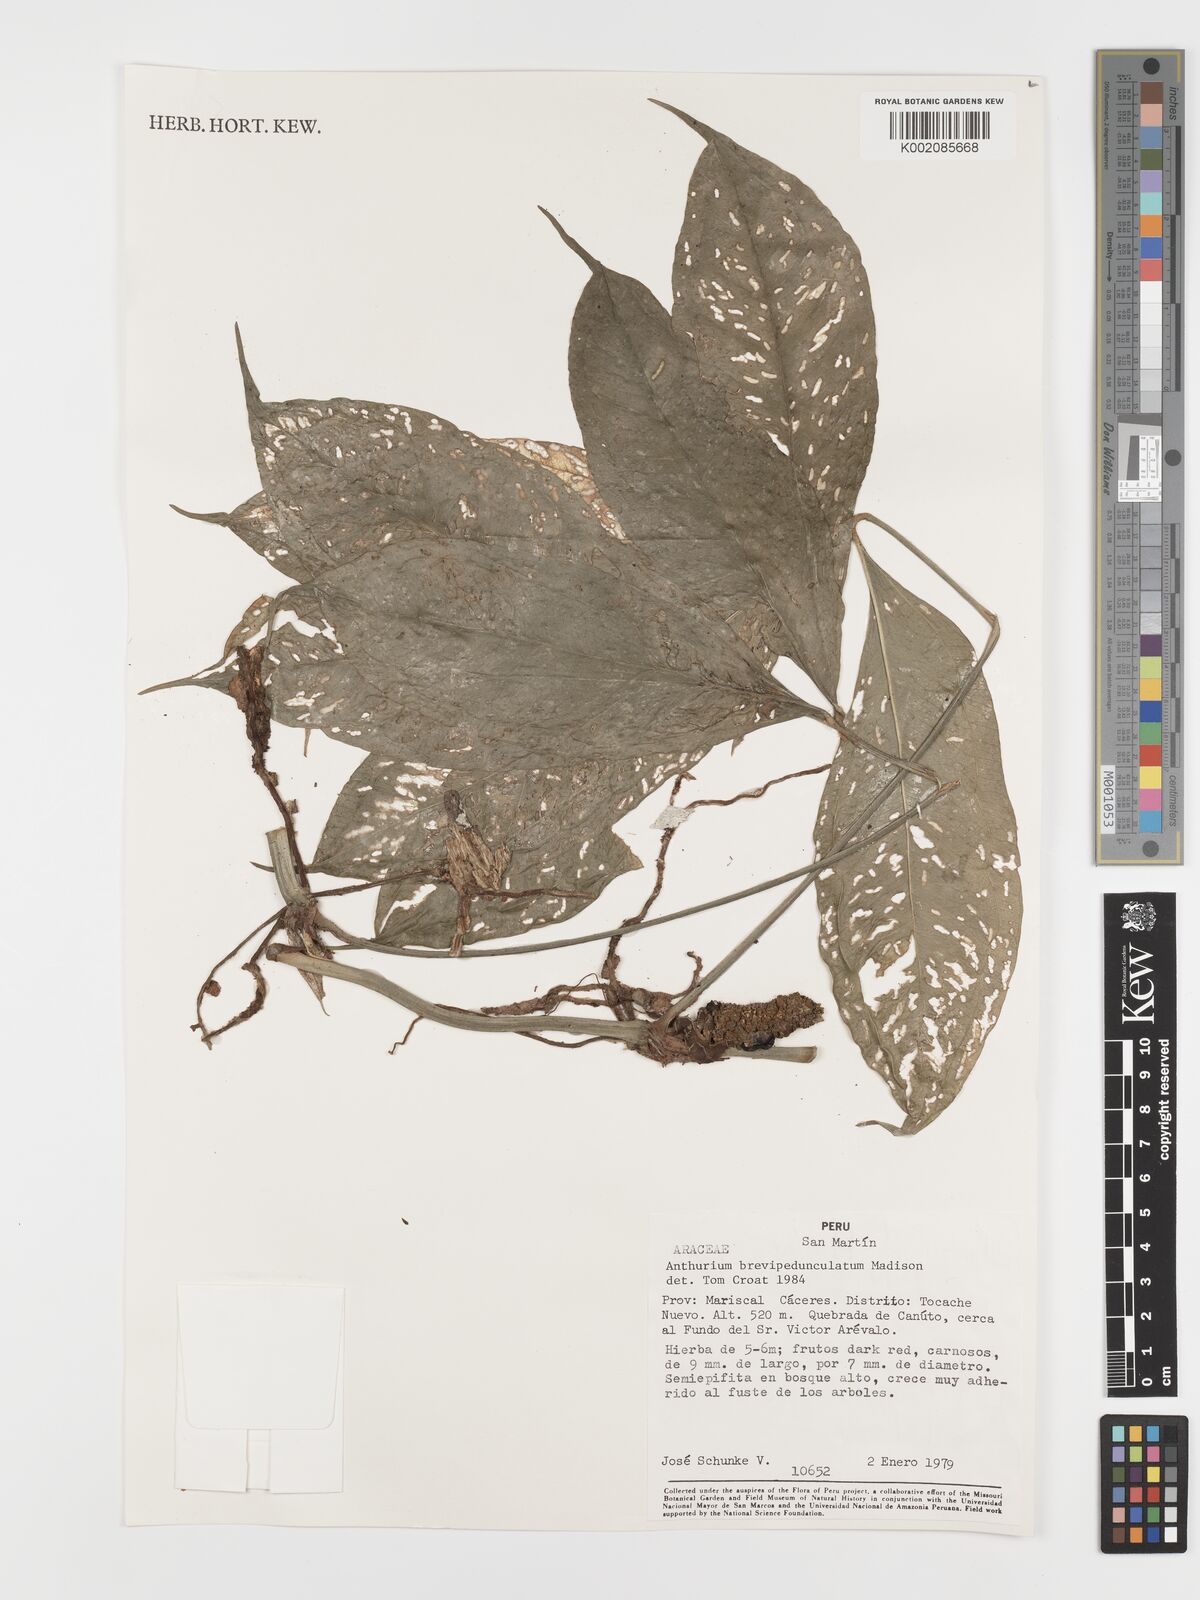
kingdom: Plantae
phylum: Tracheophyta
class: Liliopsida
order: Alismatales
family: Araceae
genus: Anthurium
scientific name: Anthurium brevipedunculatum
